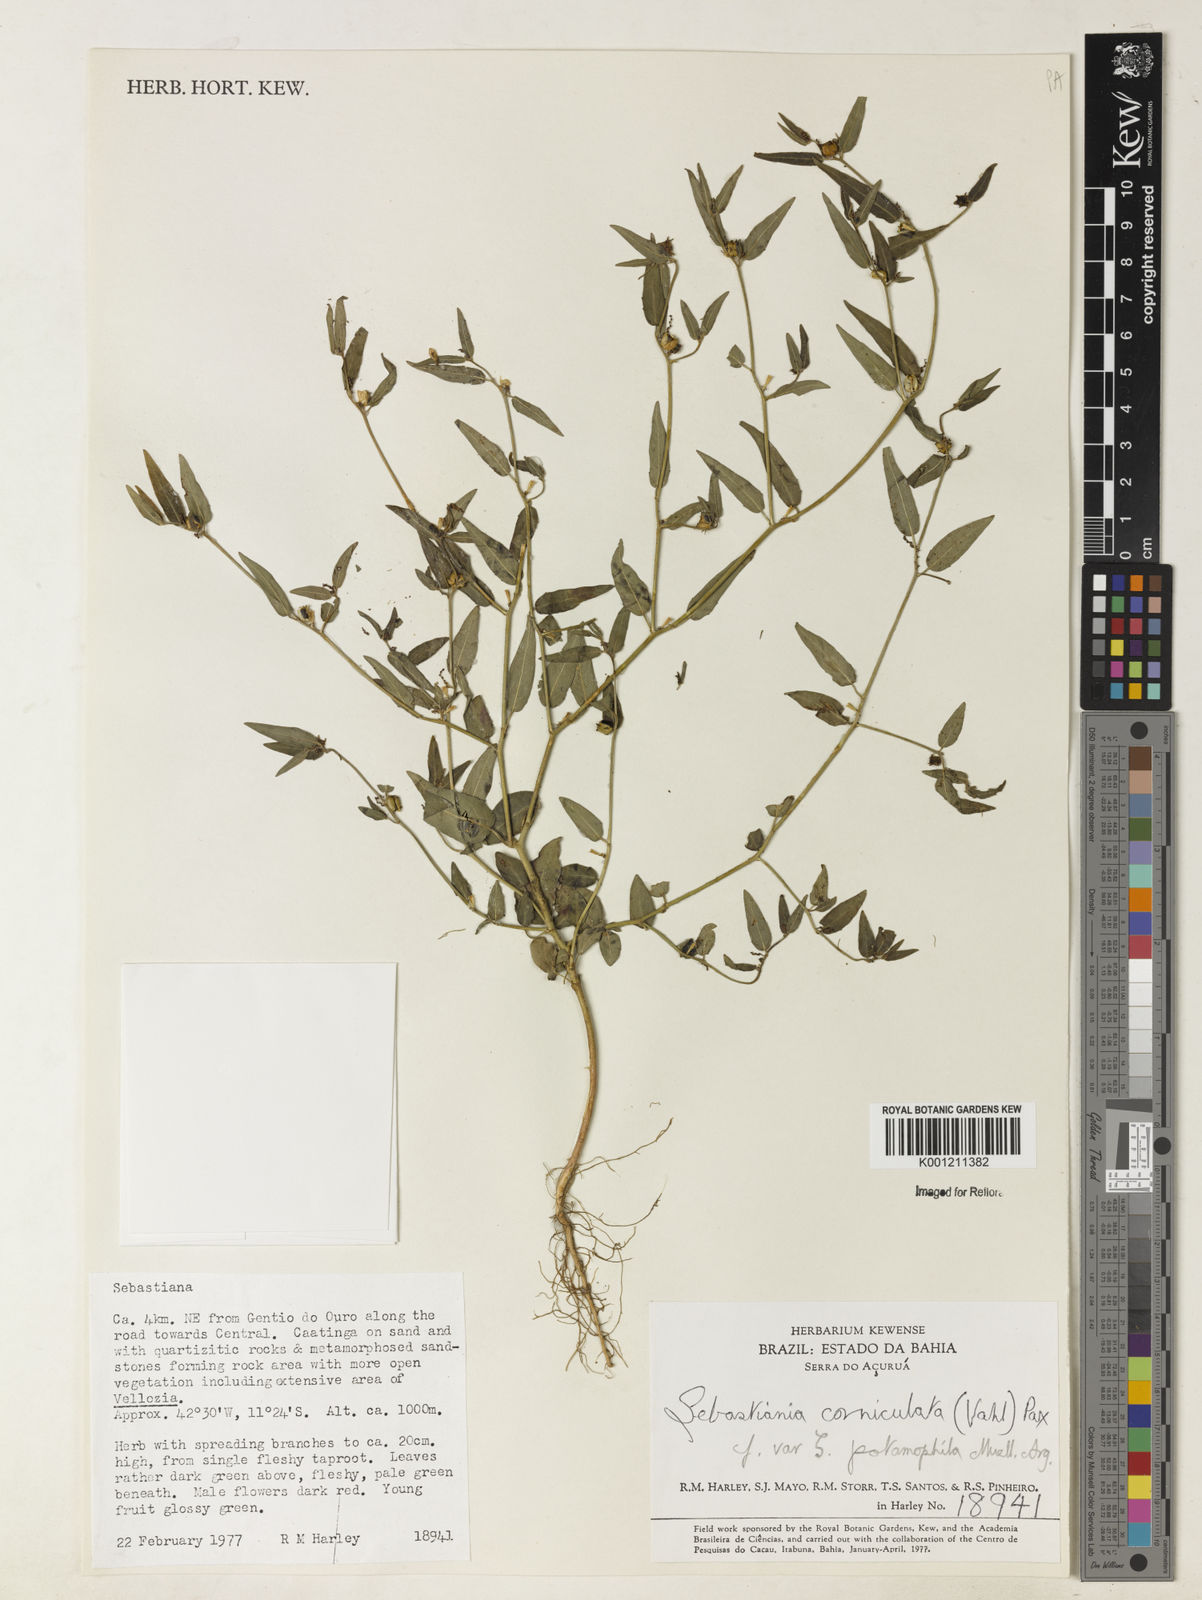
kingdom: Plantae
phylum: Tracheophyta
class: Magnoliopsida
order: Malpighiales
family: Euphorbiaceae
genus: Microstachys
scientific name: Microstachys corniculata
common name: Hato tejas
